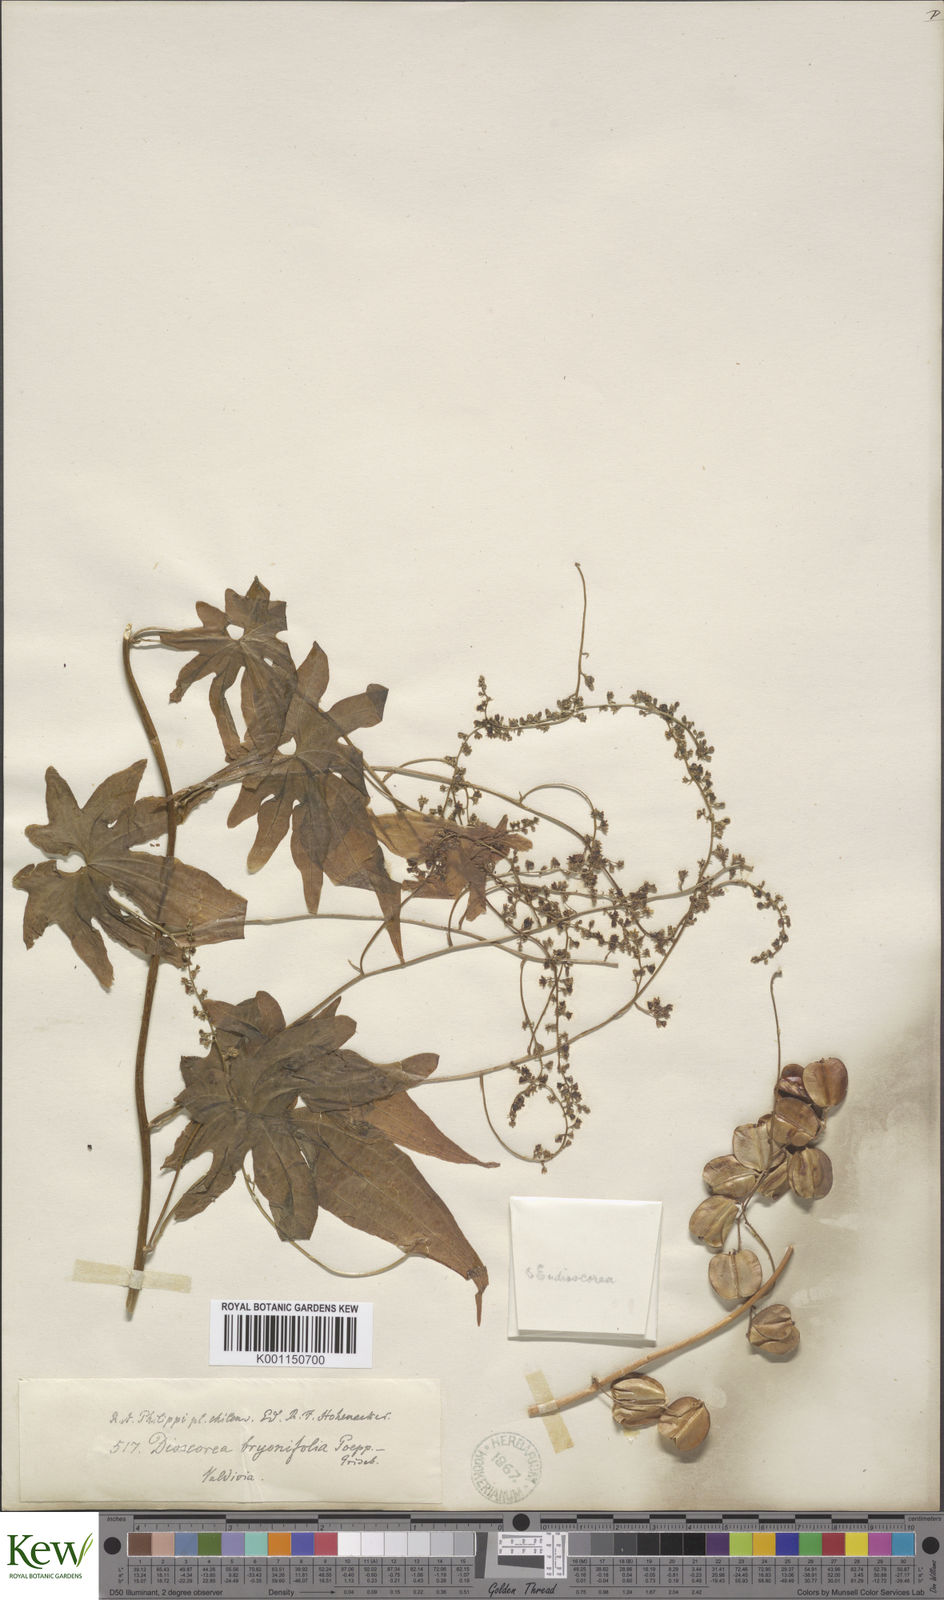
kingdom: Plantae
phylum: Tracheophyta
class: Liliopsida
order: Dioscoreales
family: Dioscoreaceae
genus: Dioscorea
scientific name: Dioscorea brachybotrya
